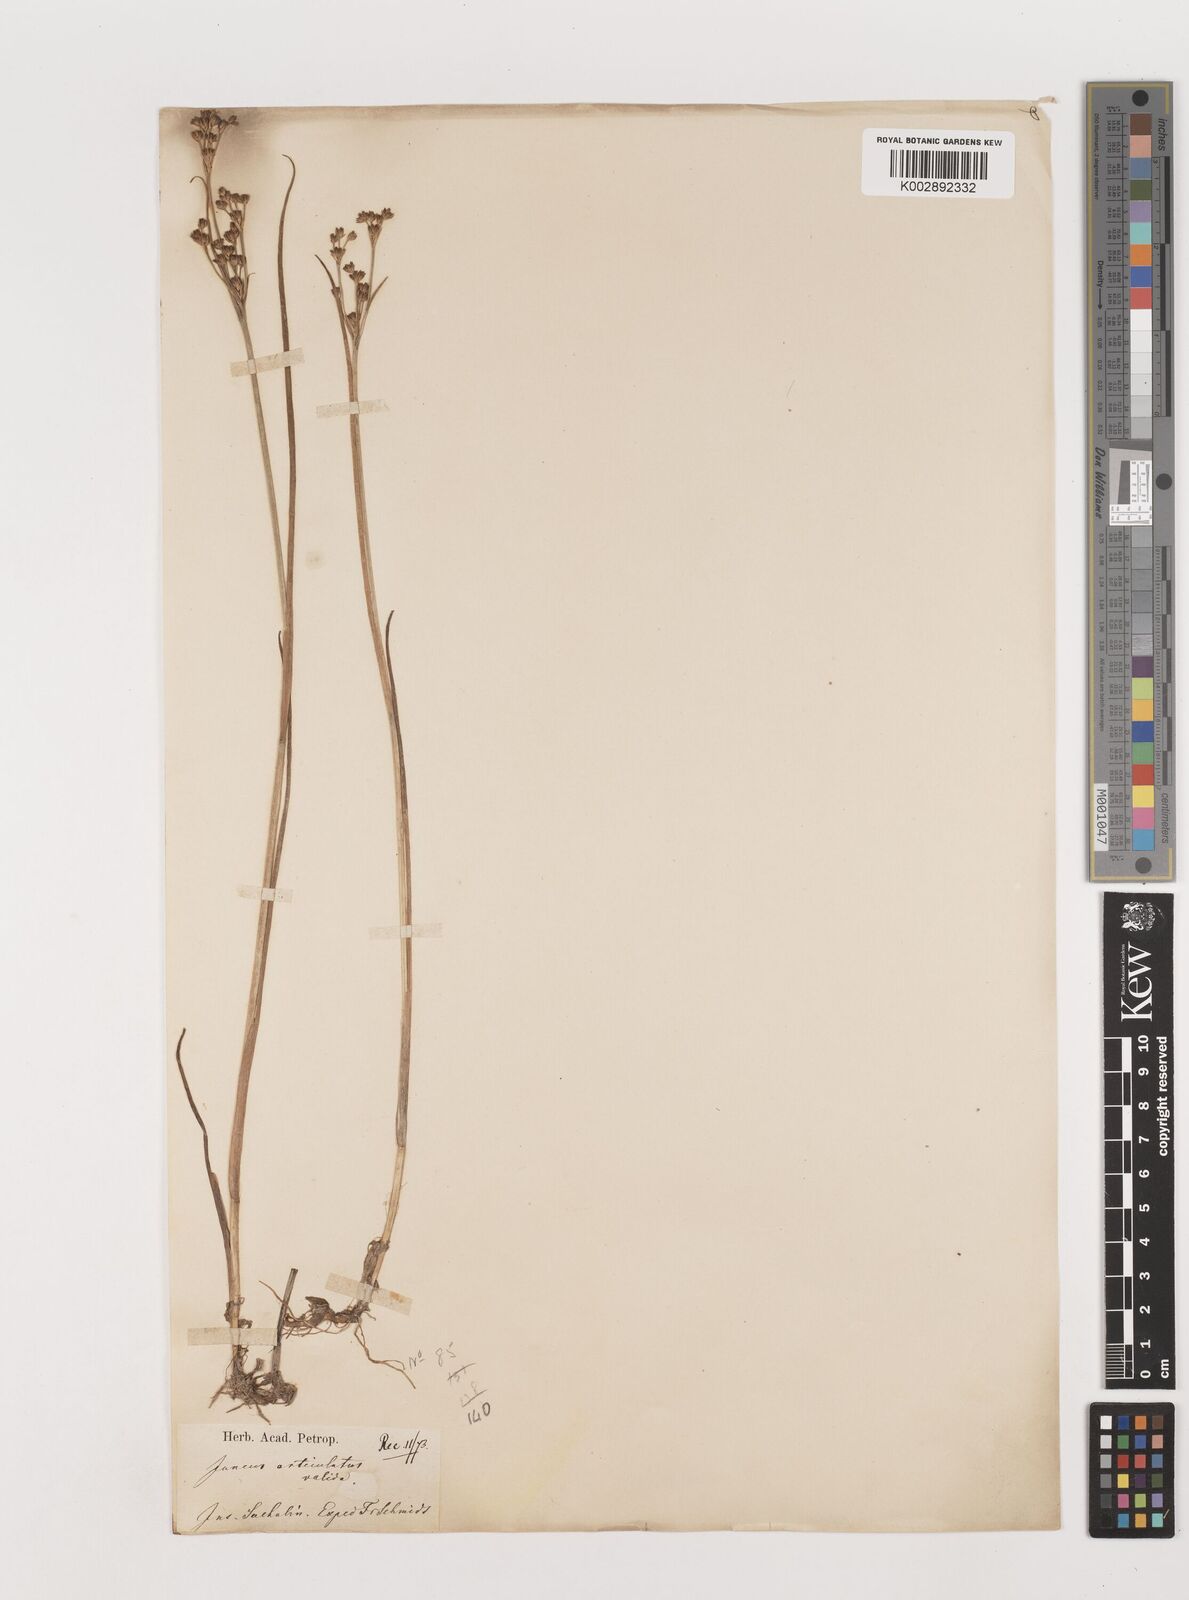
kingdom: Plantae
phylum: Tracheophyta
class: Liliopsida
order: Poales
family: Juncaceae
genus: Juncus
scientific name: Juncus articulatus
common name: Jointed rush
